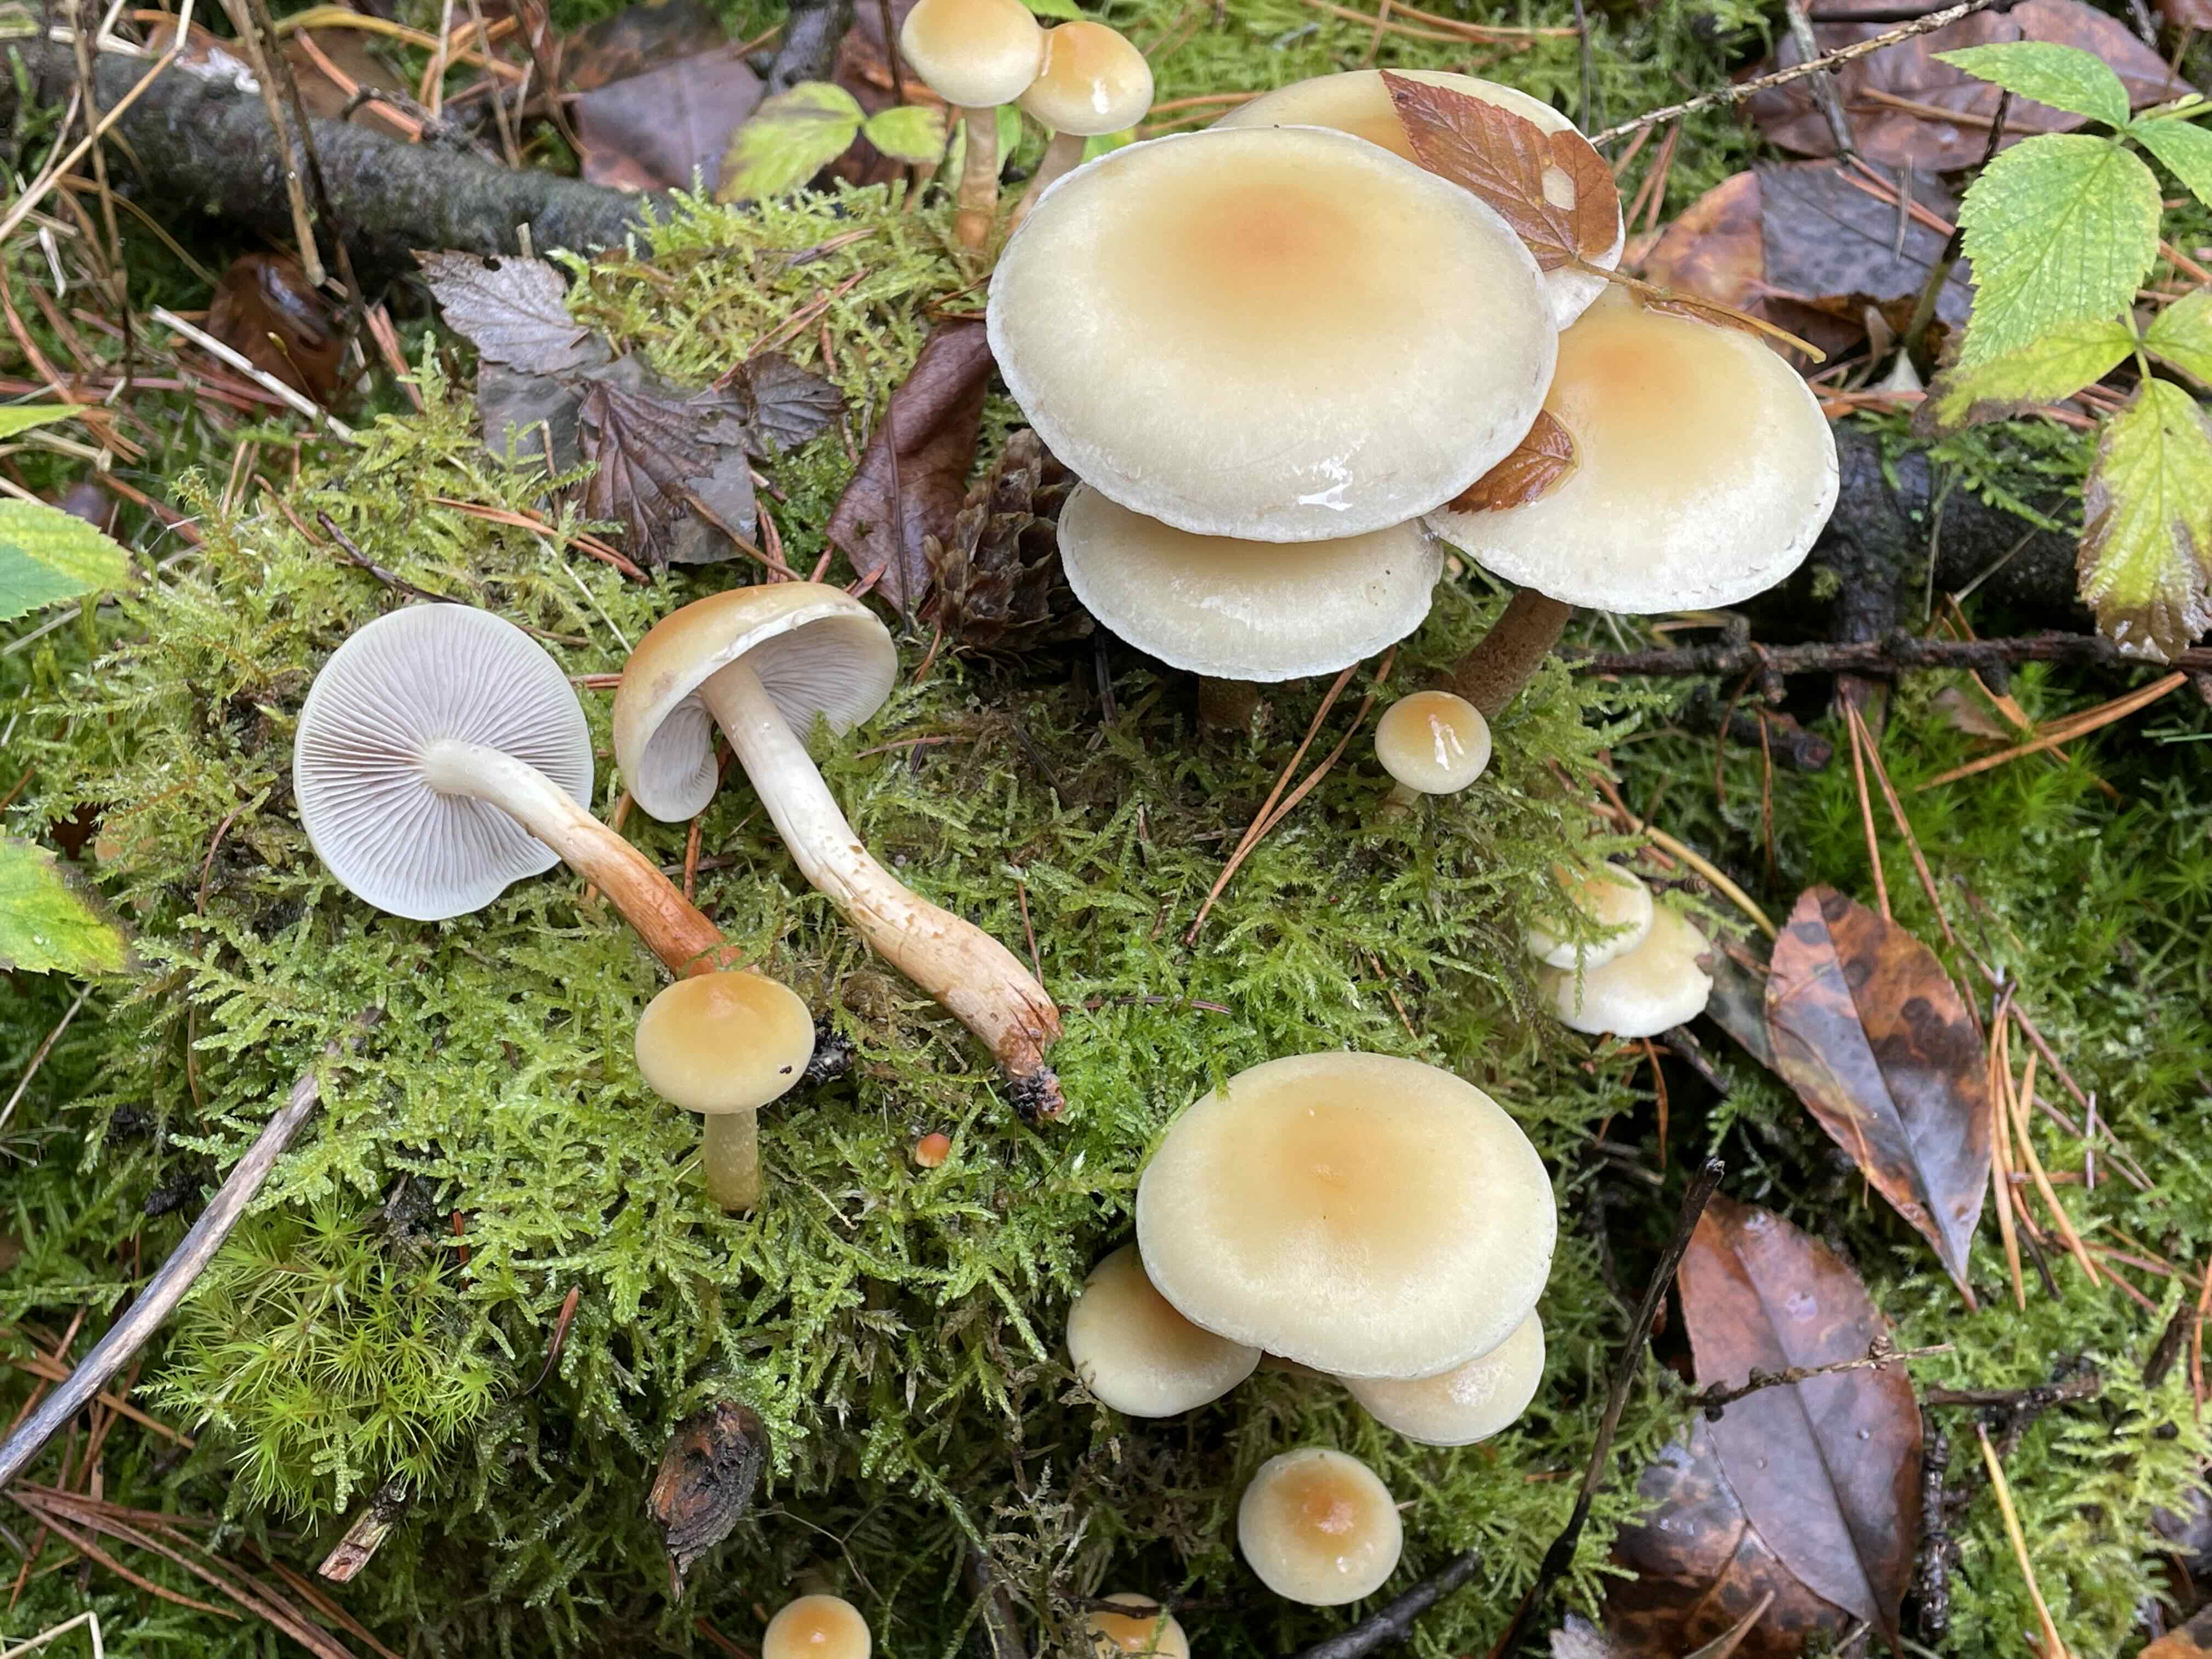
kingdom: Fungi
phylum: Basidiomycota
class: Agaricomycetes
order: Agaricales
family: Strophariaceae
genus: Hypholoma
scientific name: Hypholoma capnoides
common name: gran-svovlhat
